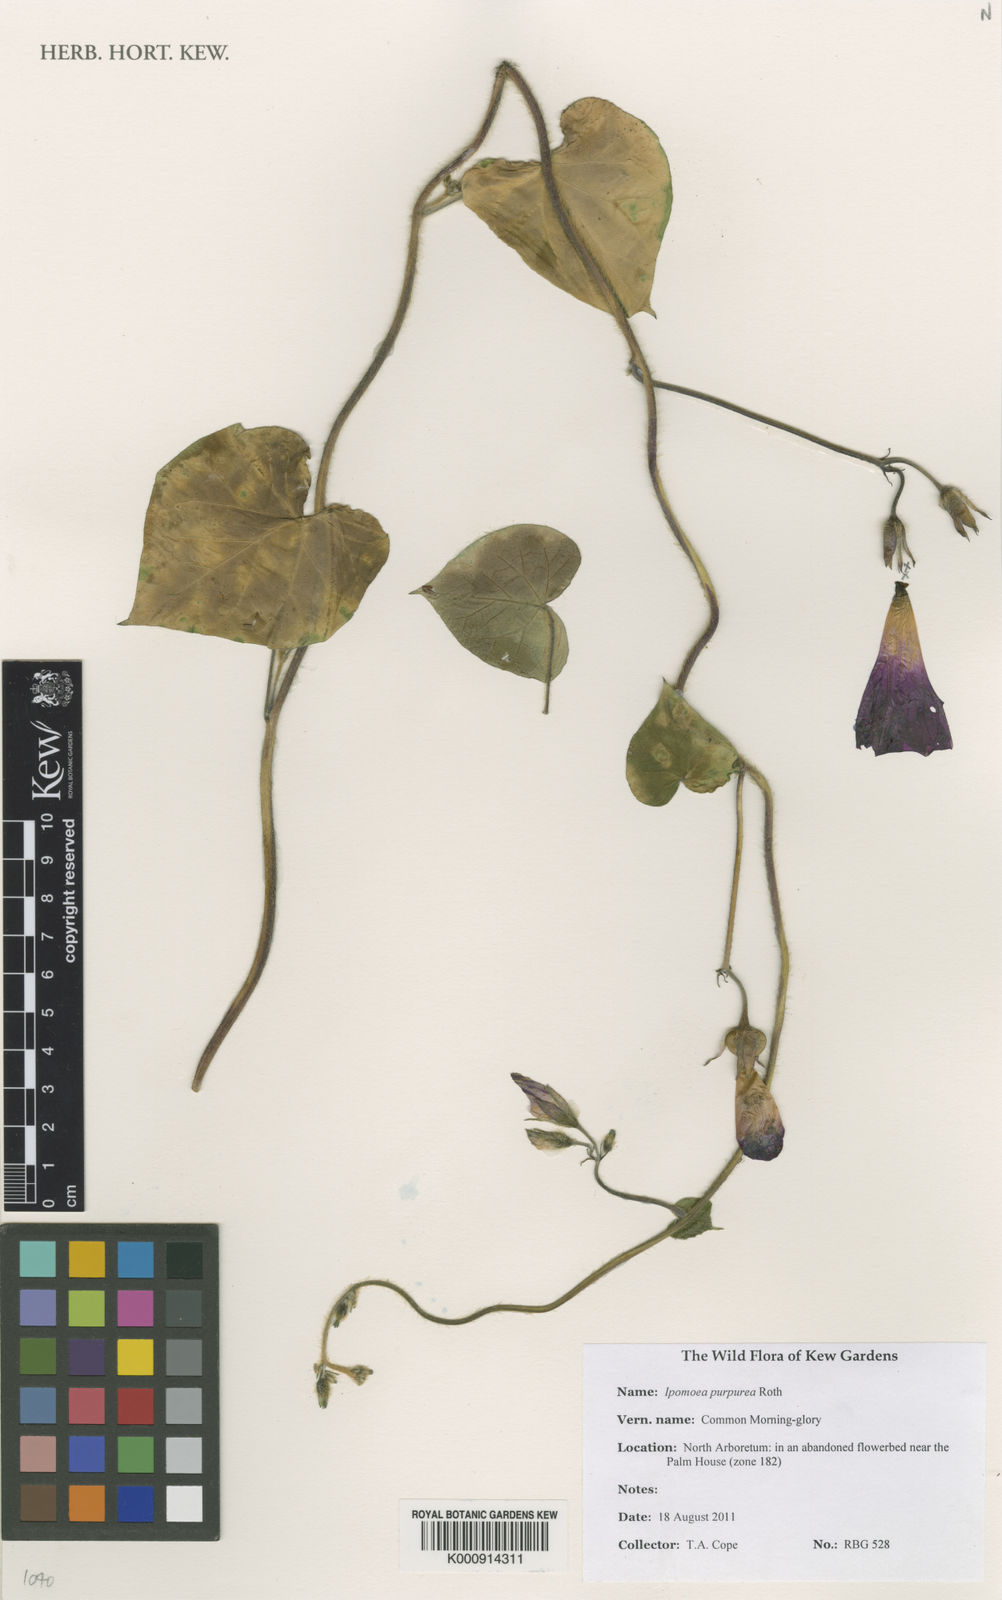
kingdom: Plantae
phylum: Tracheophyta
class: Magnoliopsida
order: Solanales
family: Convolvulaceae
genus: Ipomoea
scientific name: Ipomoea purpurea
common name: Common morning-glory
